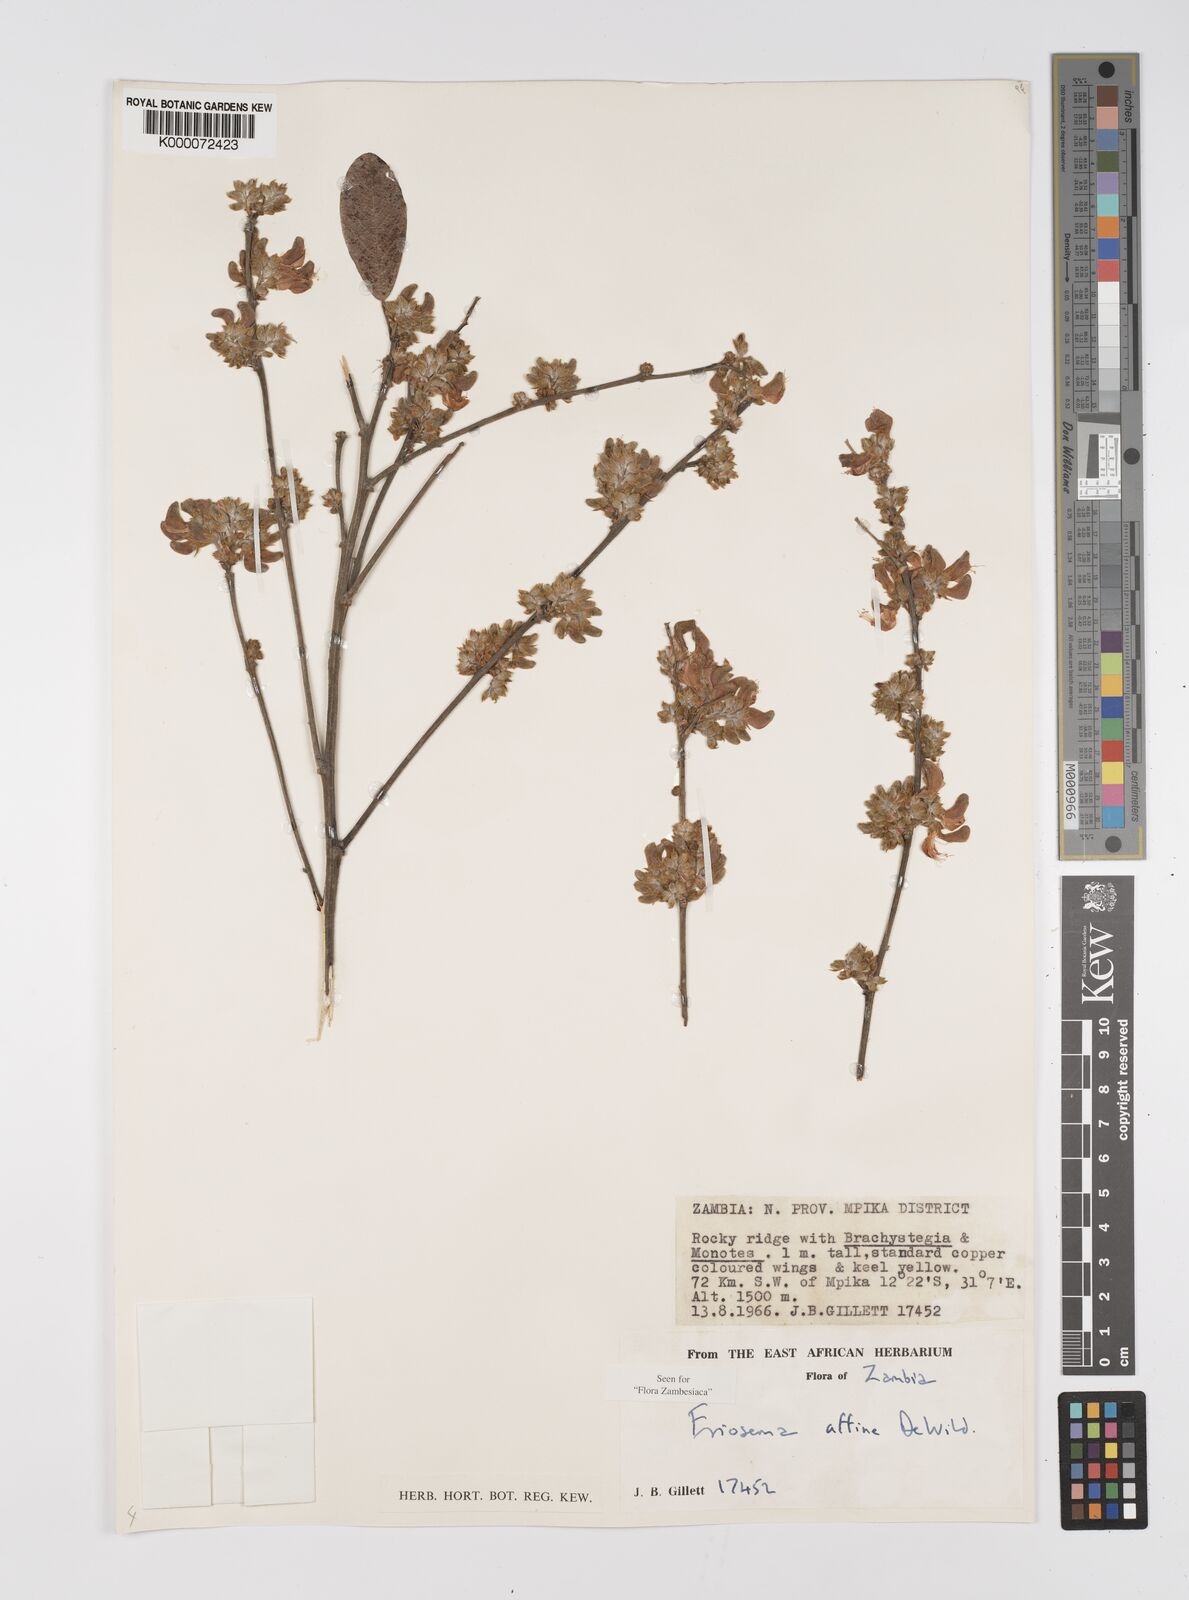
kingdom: Plantae
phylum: Tracheophyta
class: Magnoliopsida
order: Fabales
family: Fabaceae
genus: Eriosema
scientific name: Eriosema affine
